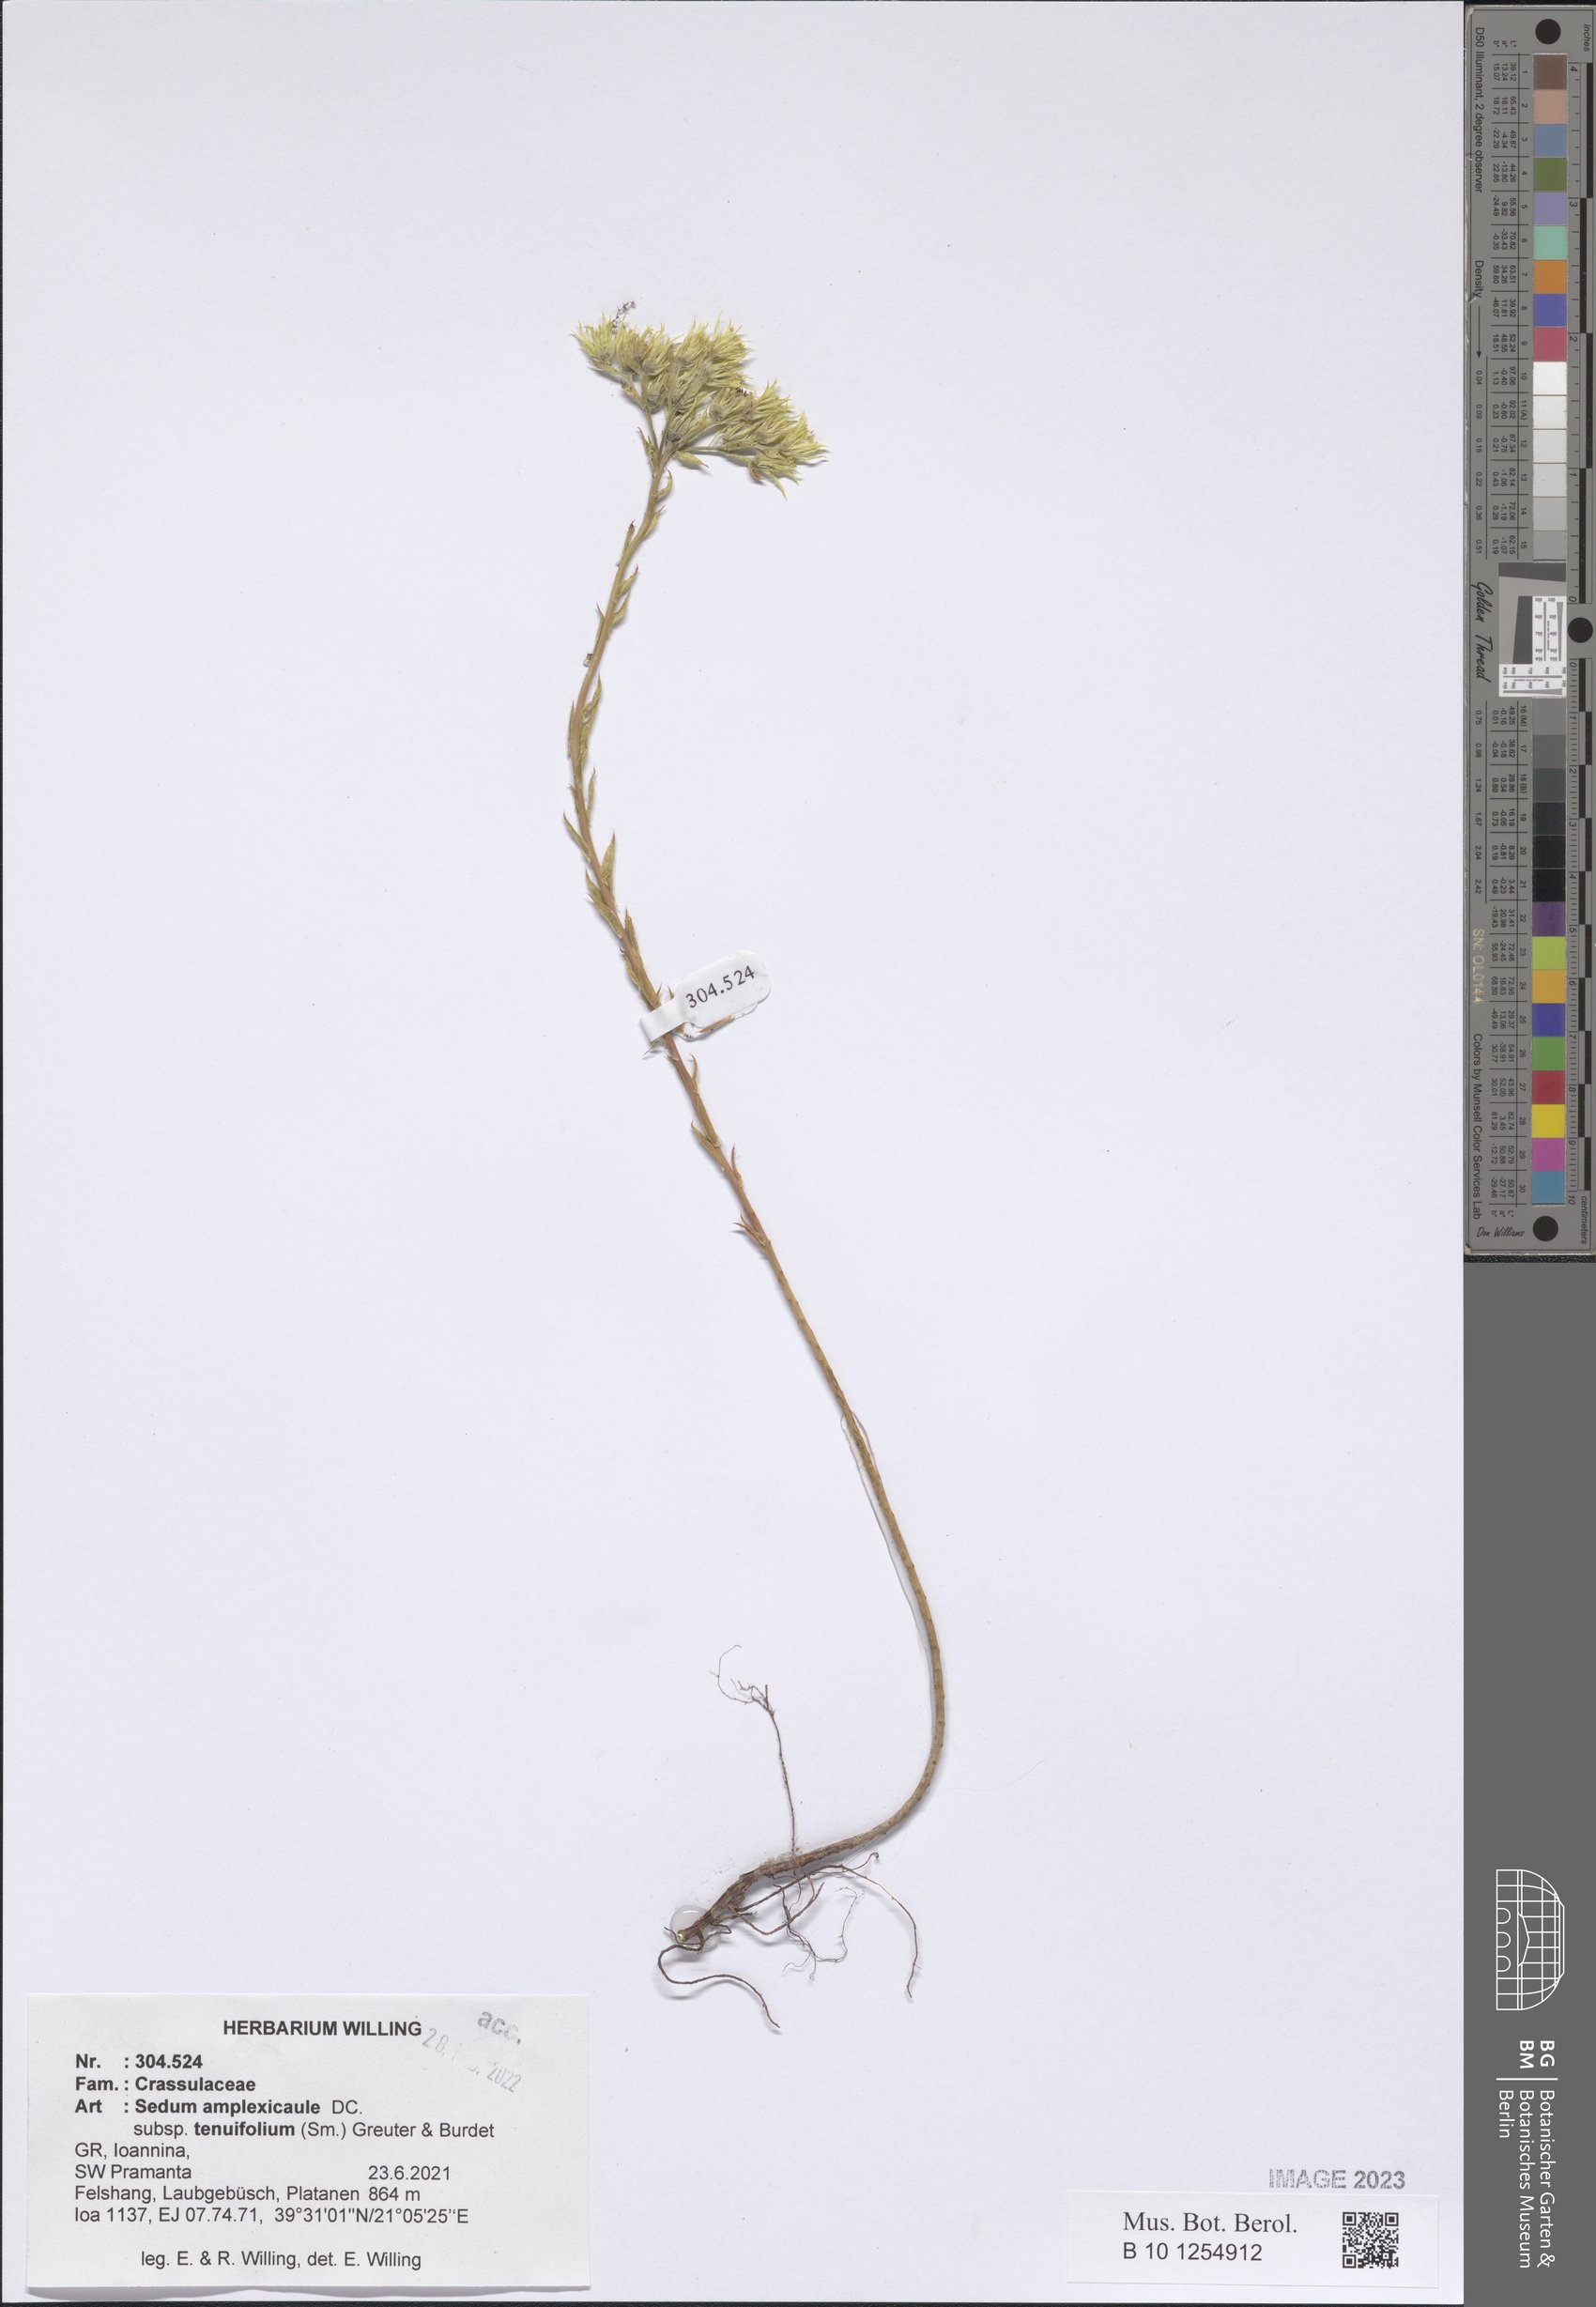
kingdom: Plantae
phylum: Tracheophyta
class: Magnoliopsida
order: Saxifragales
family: Crassulaceae
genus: Petrosedum
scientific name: Petrosedum tenuifolium
